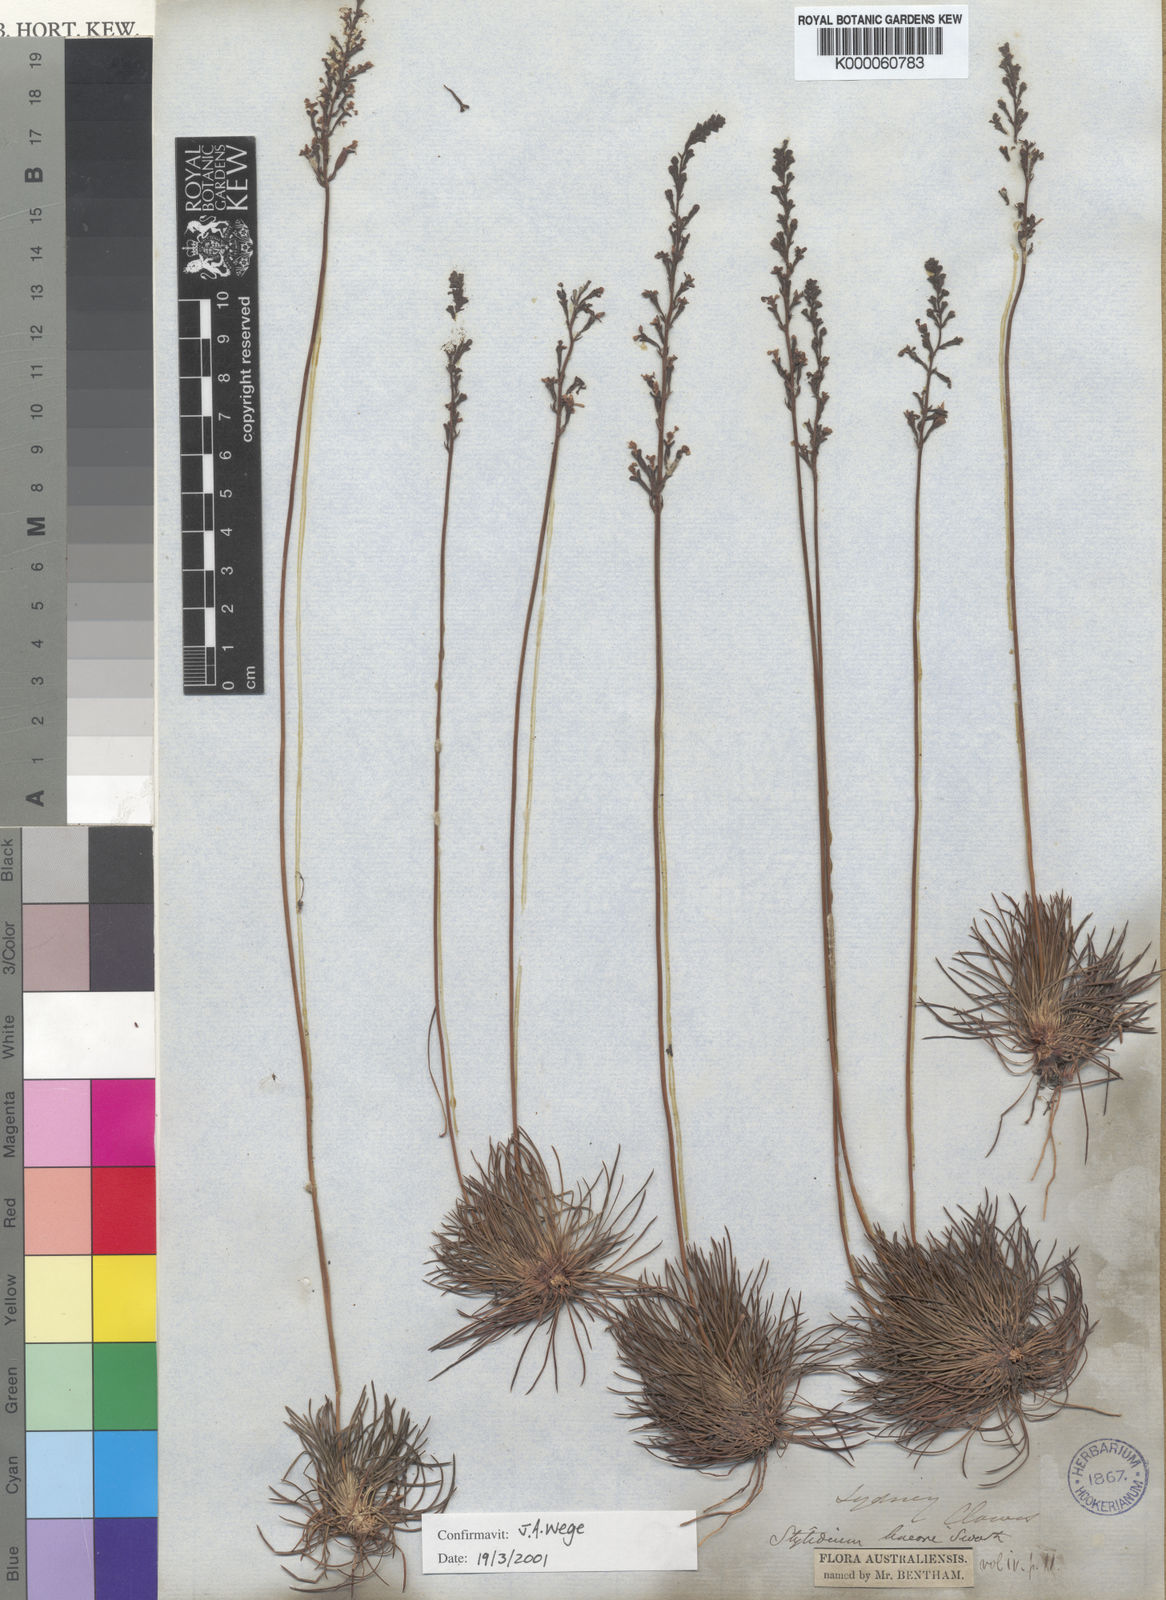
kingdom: Plantae
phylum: Tracheophyta
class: Magnoliopsida
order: Asterales
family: Stylidiaceae
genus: Stylidium
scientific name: Stylidium lineare
